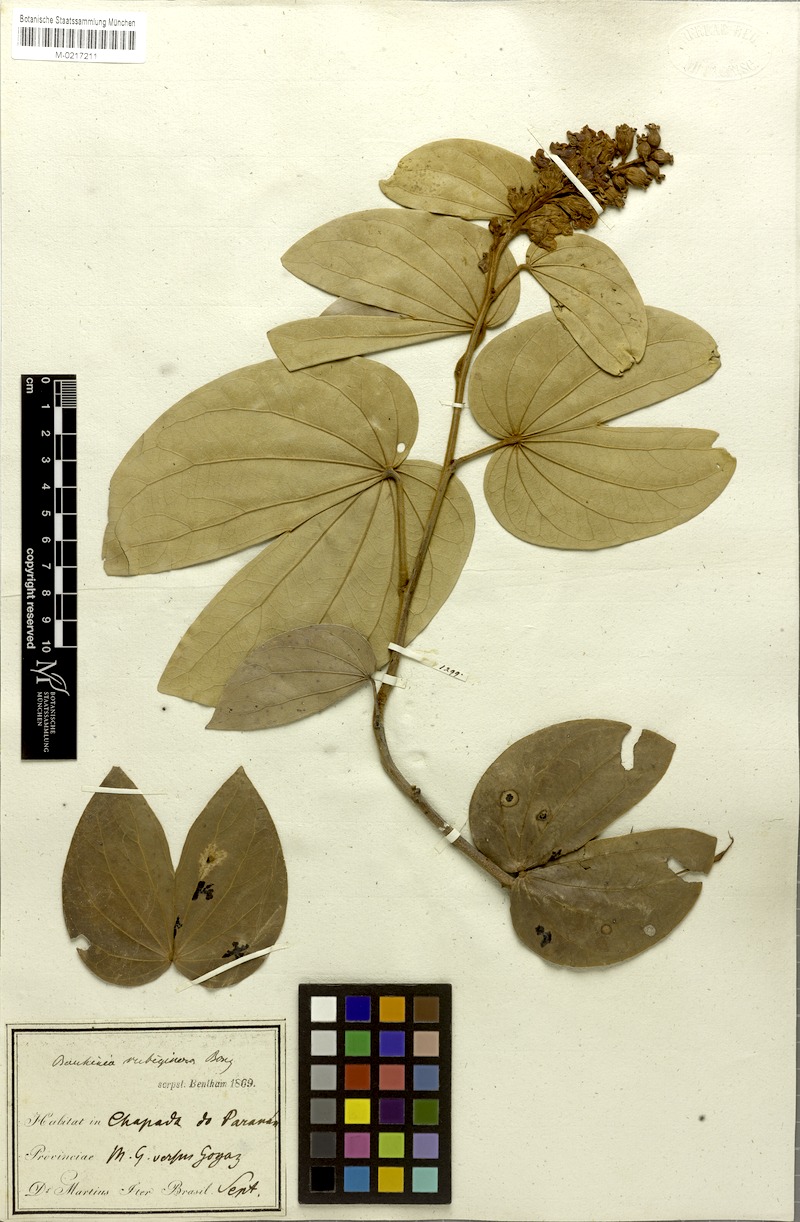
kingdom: Plantae
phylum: Tracheophyta
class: Magnoliopsida
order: Fabales
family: Fabaceae
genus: Schnella
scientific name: Schnella outimouta
